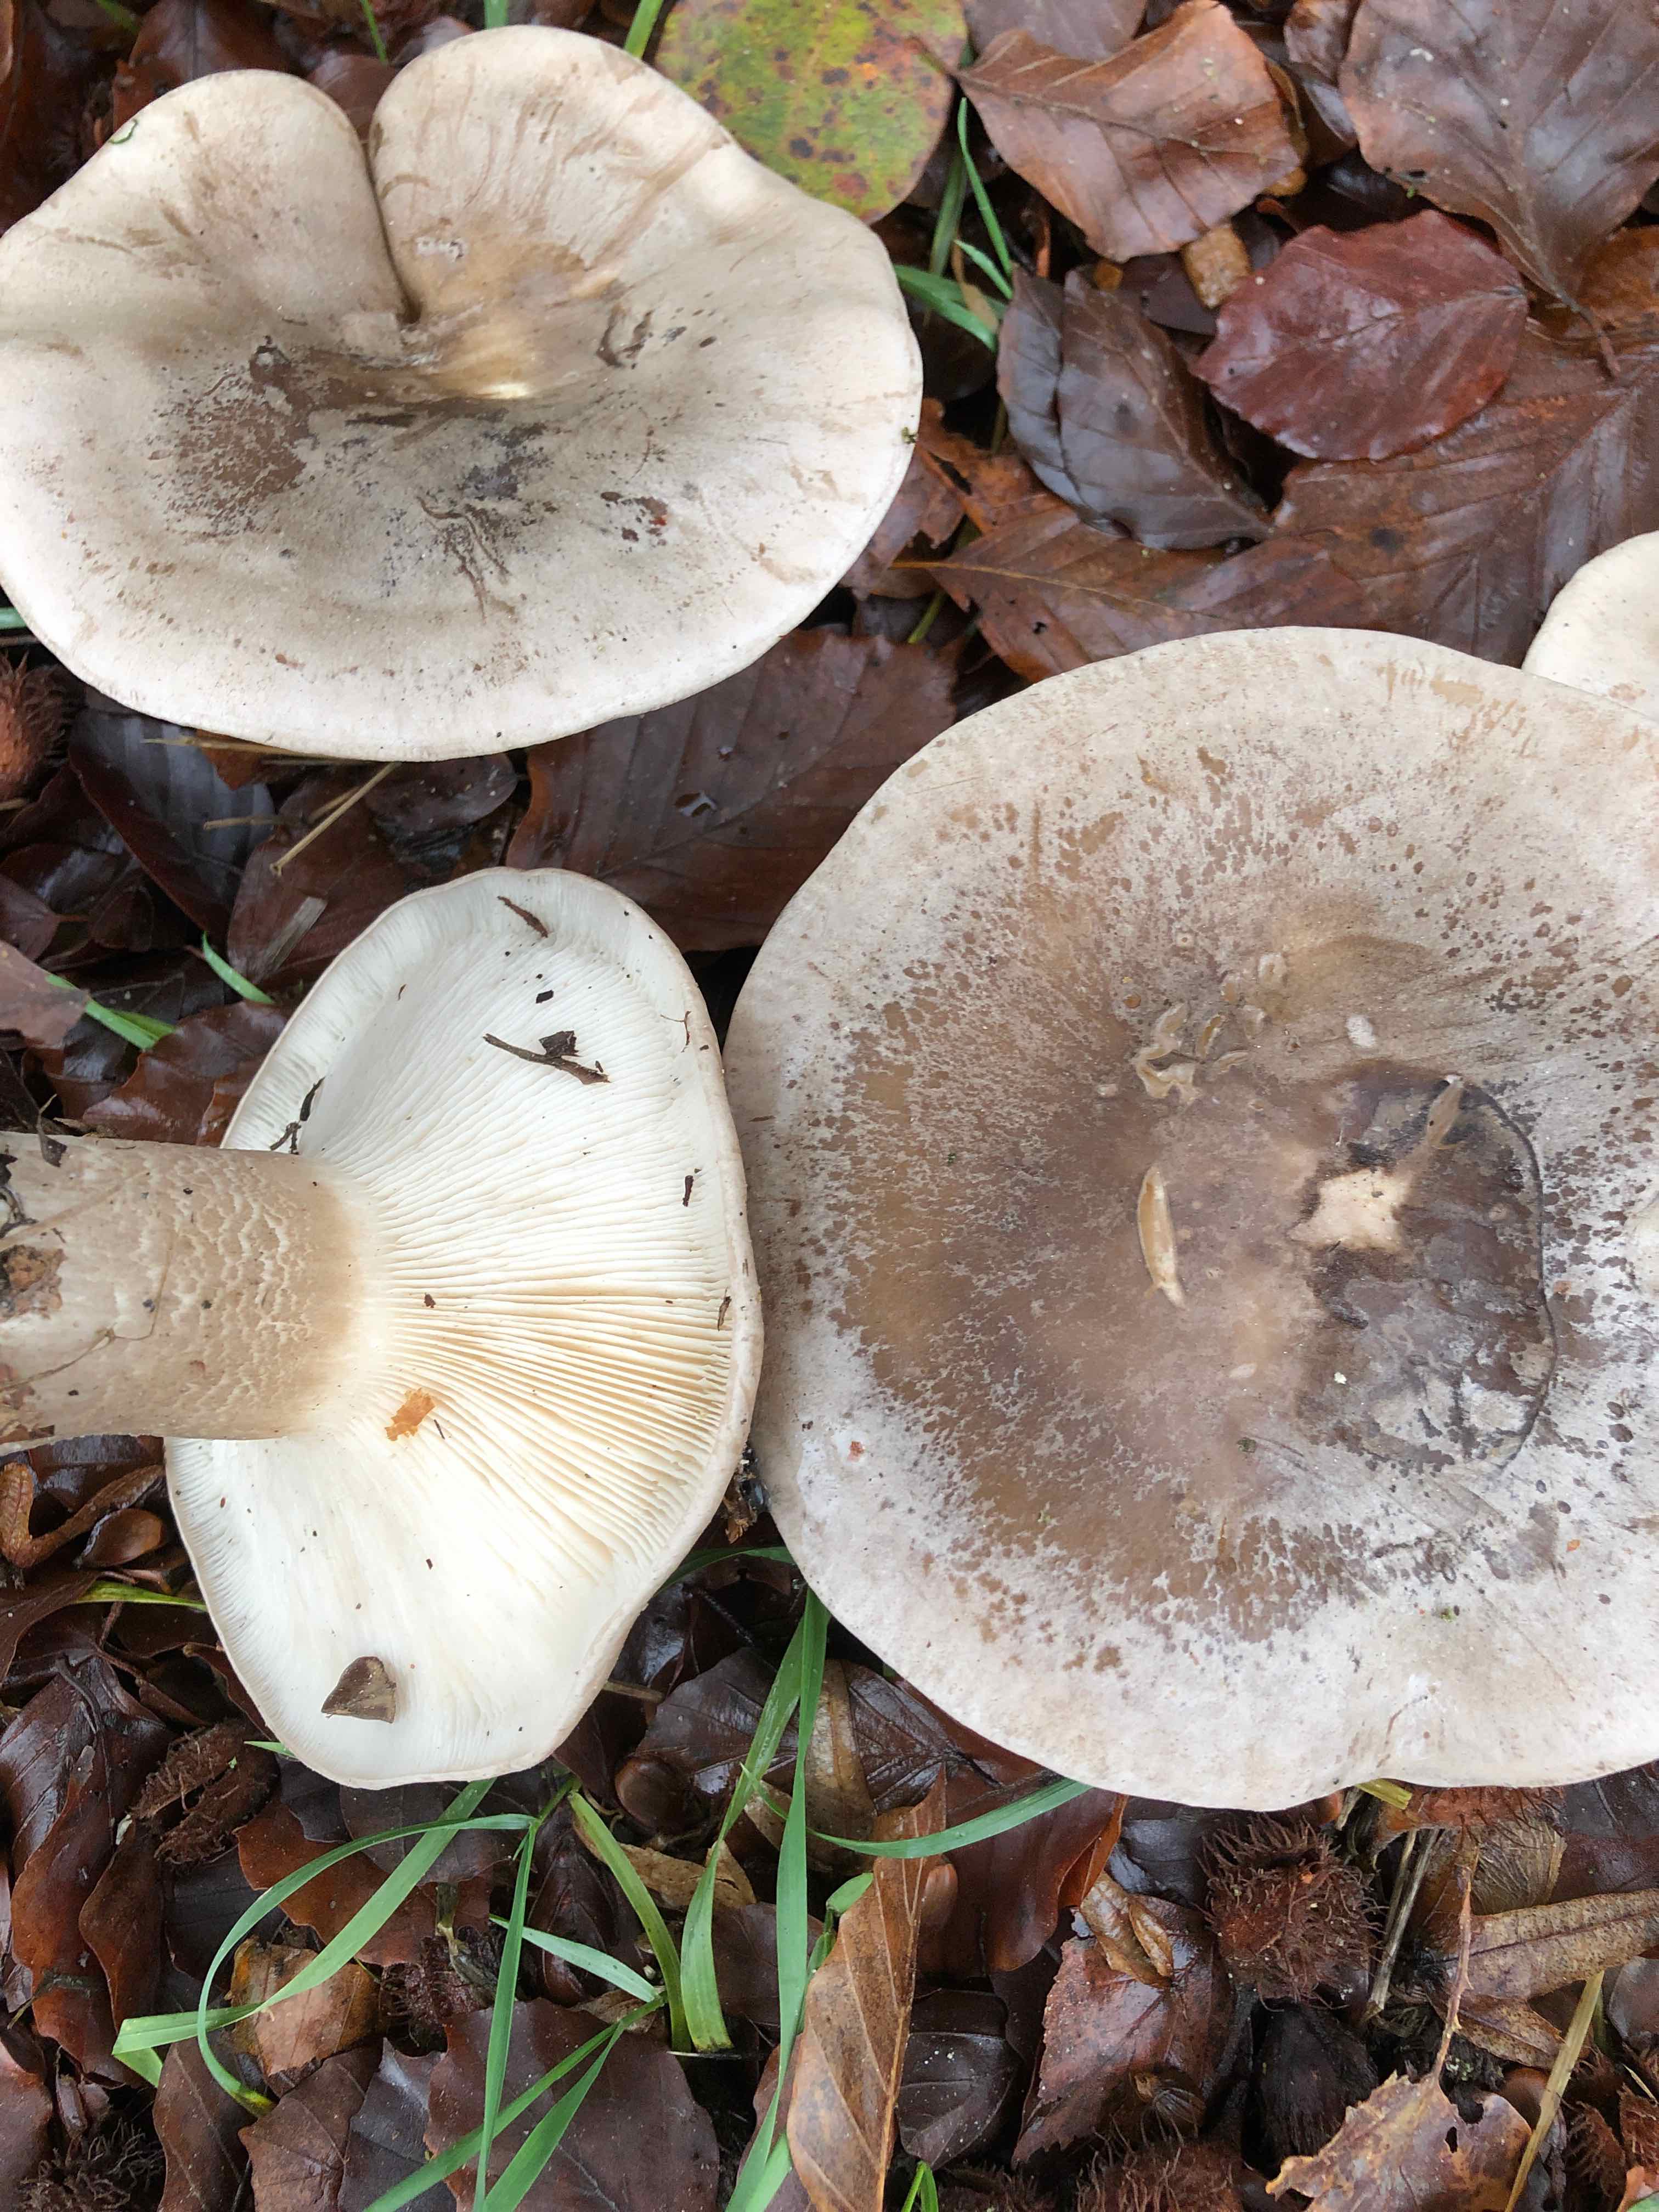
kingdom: Fungi
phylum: Basidiomycota
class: Agaricomycetes
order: Agaricales
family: Tricholomataceae
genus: Clitocybe
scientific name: Clitocybe nebularis
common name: tåge-tragthat
